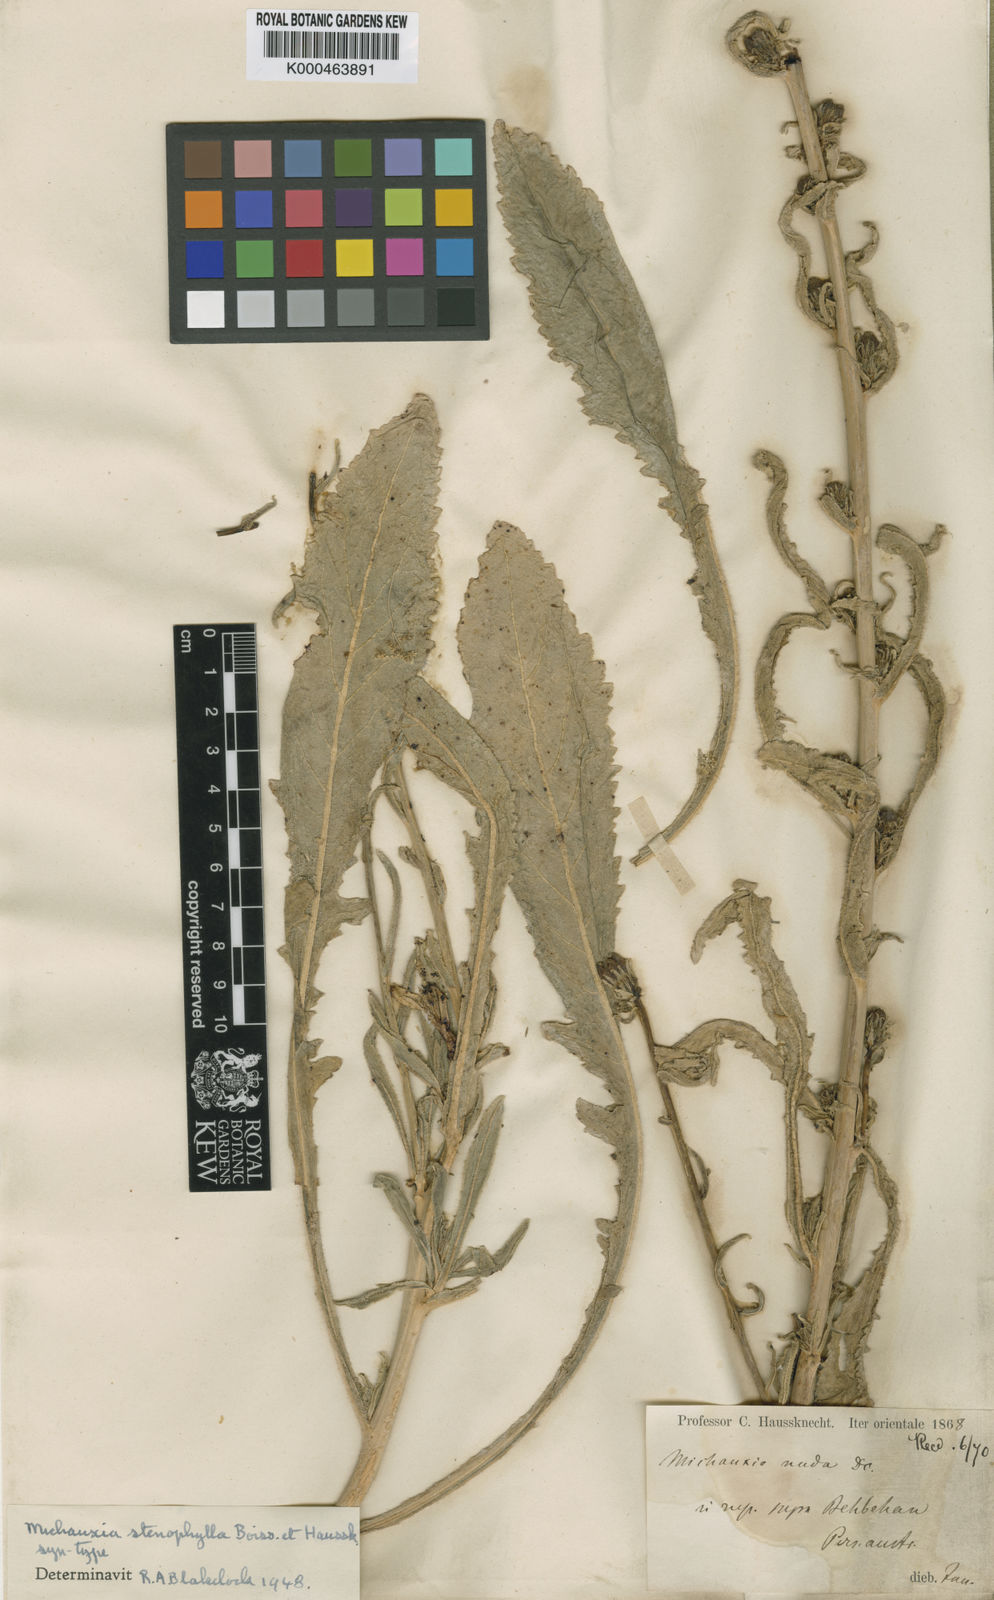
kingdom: Plantae
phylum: Tracheophyta
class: Magnoliopsida
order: Asterales
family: Campanulaceae
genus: Michauxia
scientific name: Michauxia stenophylla
